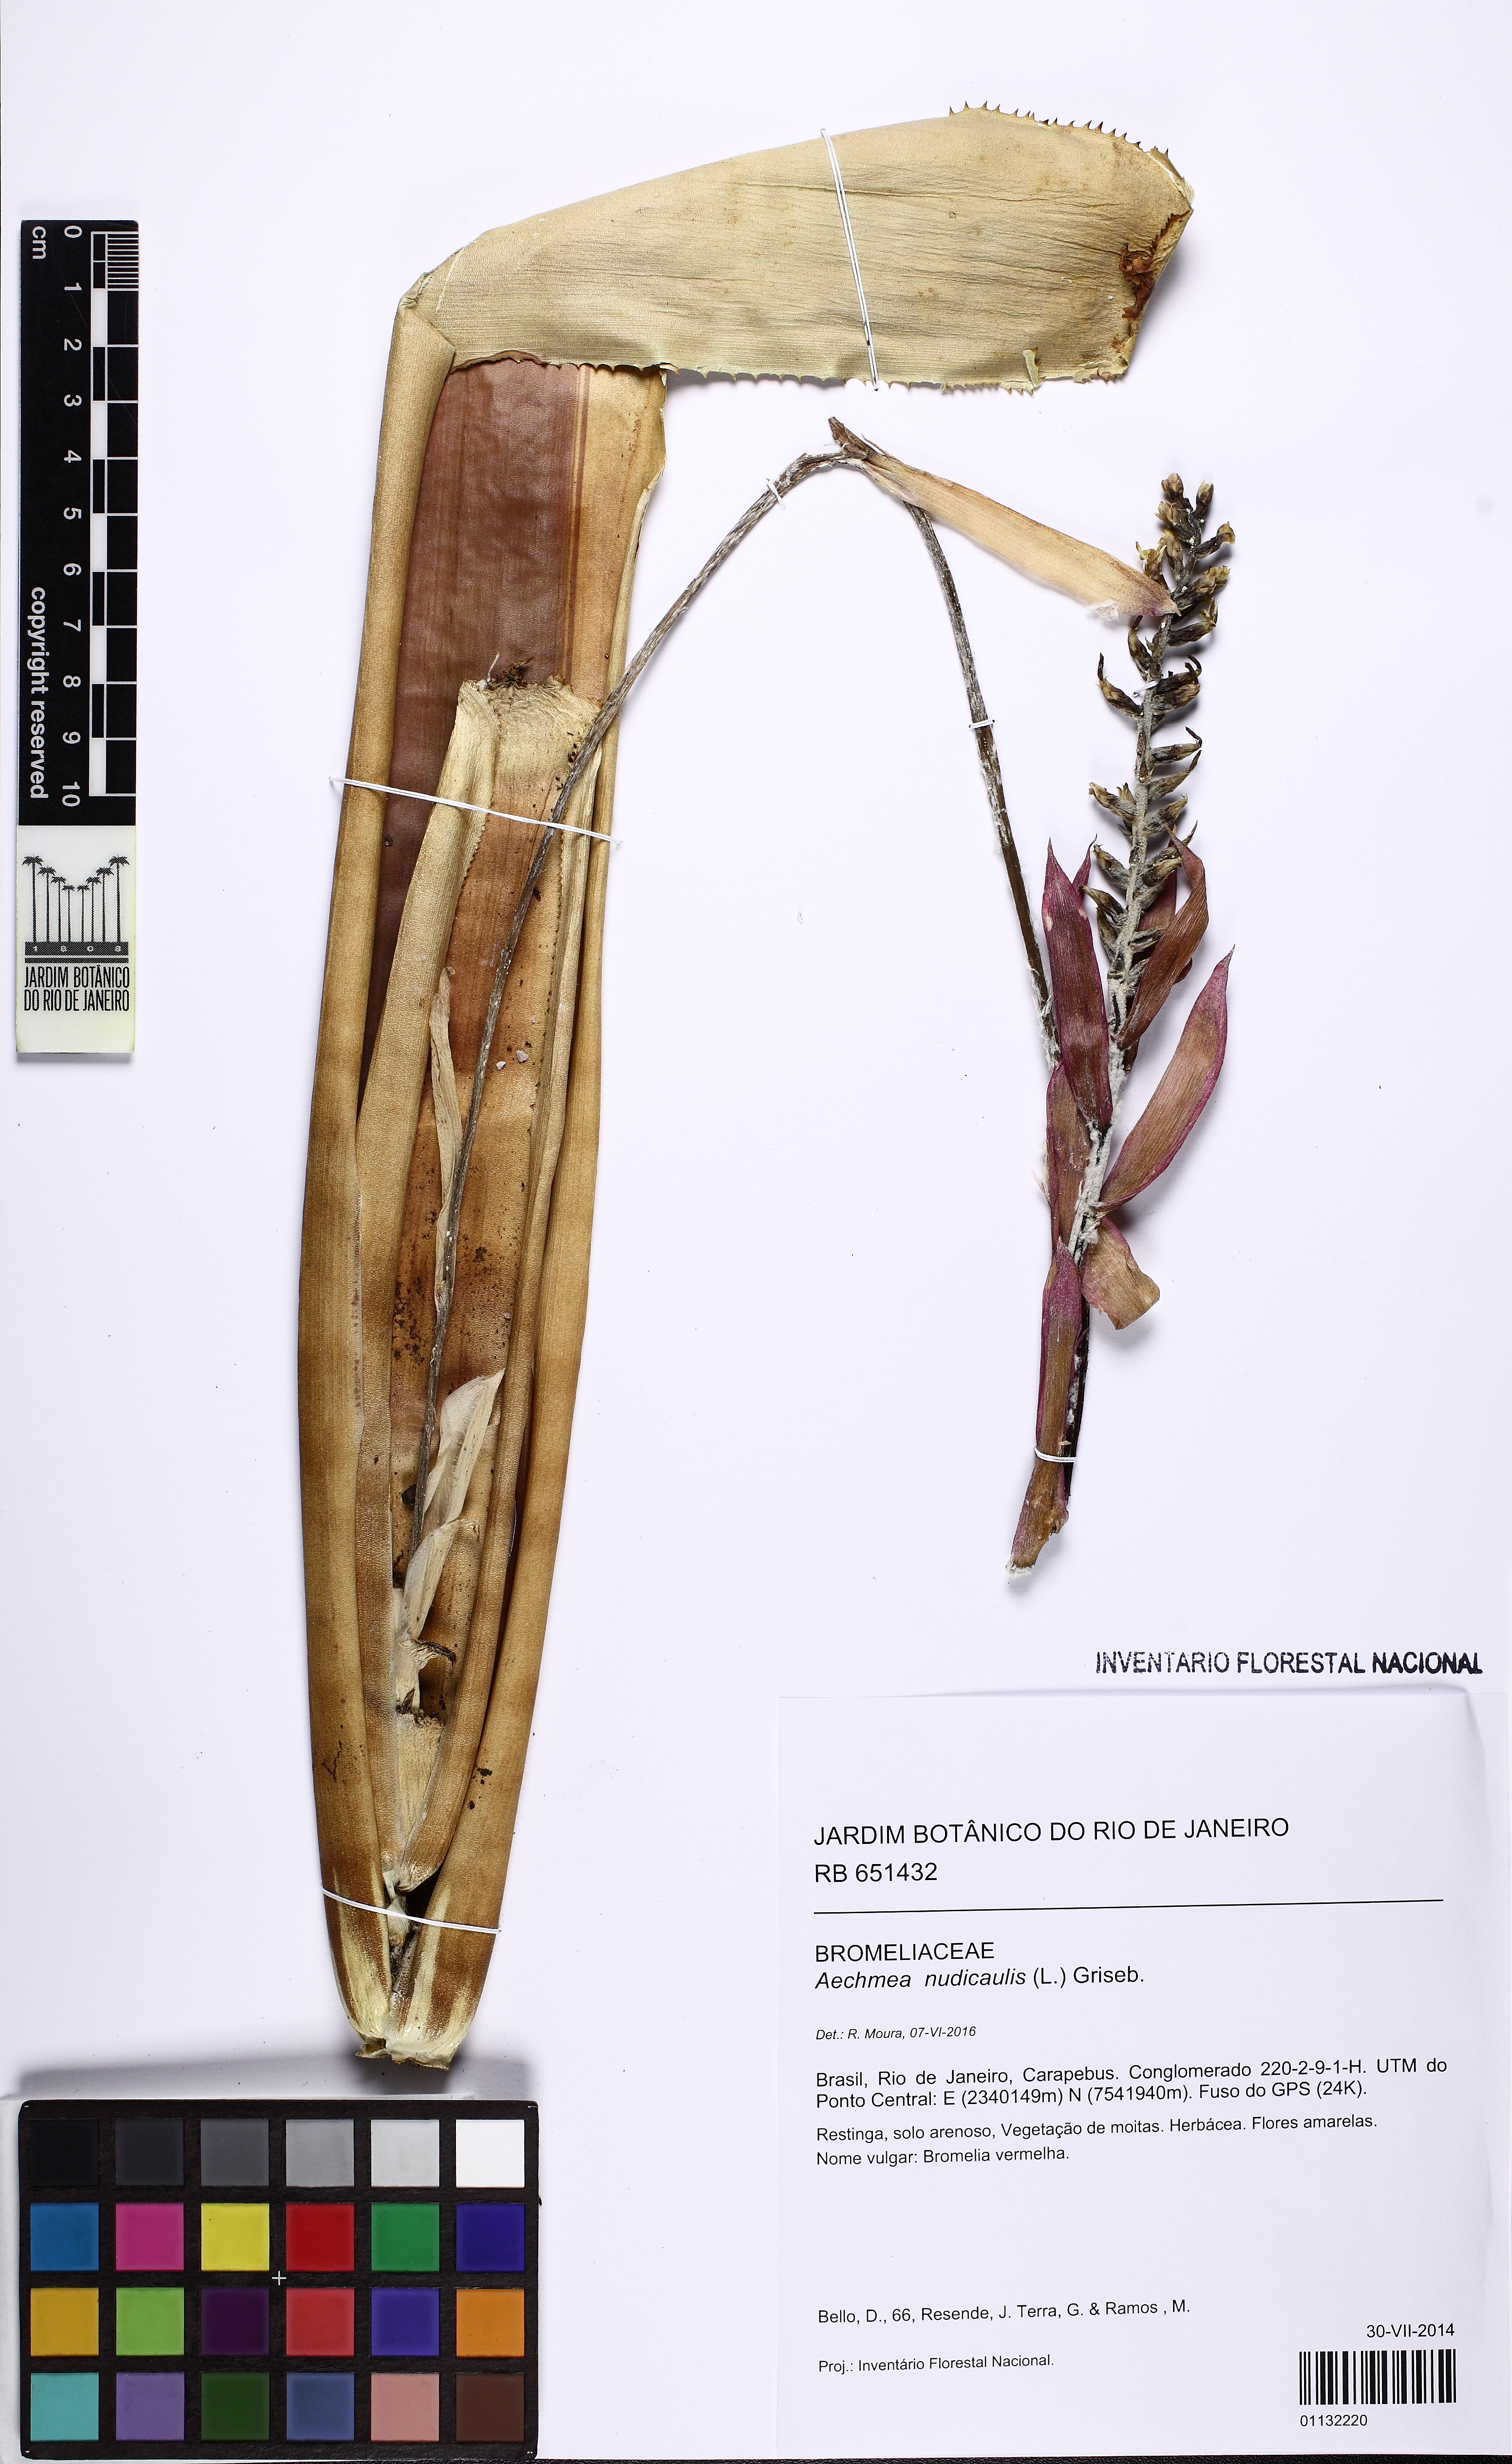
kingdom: Plantae
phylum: Tracheophyta
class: Liliopsida
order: Poales
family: Bromeliaceae
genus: Aechmea
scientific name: Aechmea nudicaulis
